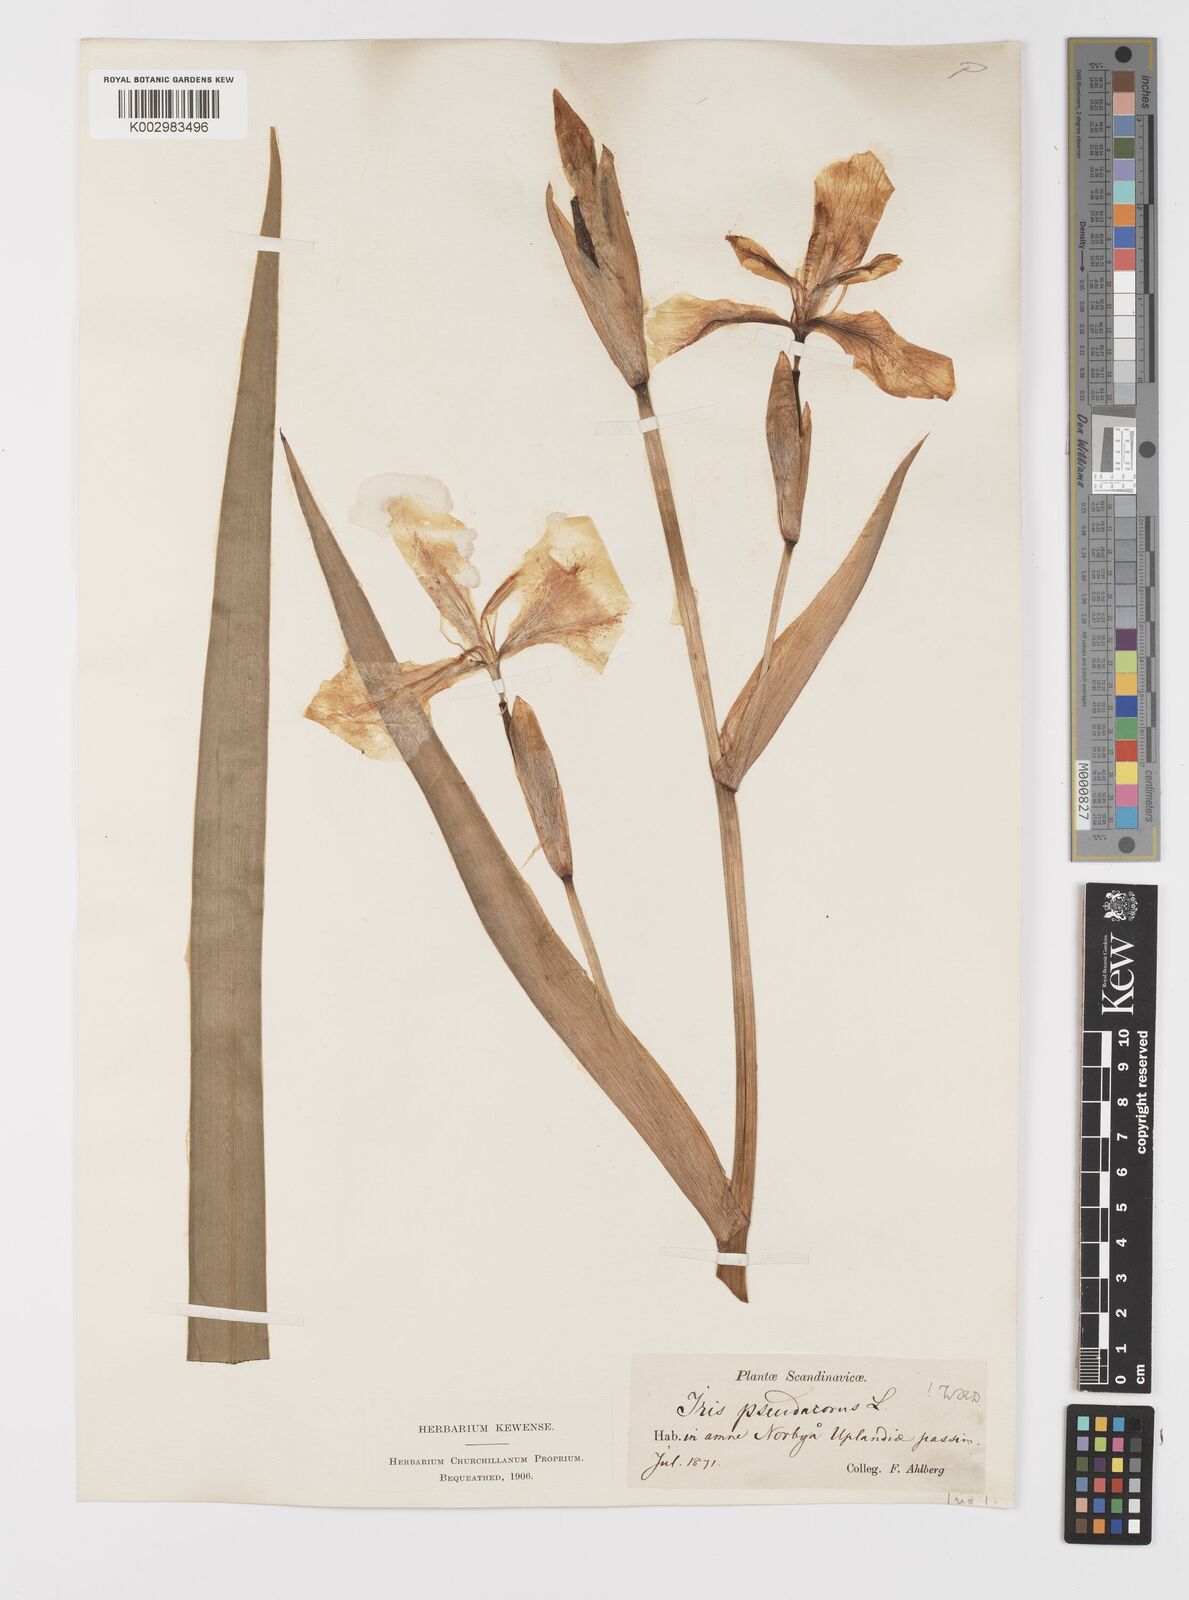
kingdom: Plantae
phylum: Tracheophyta
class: Liliopsida
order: Asparagales
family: Iridaceae
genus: Iris
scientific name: Iris pseudacorus
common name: Yellow flag
